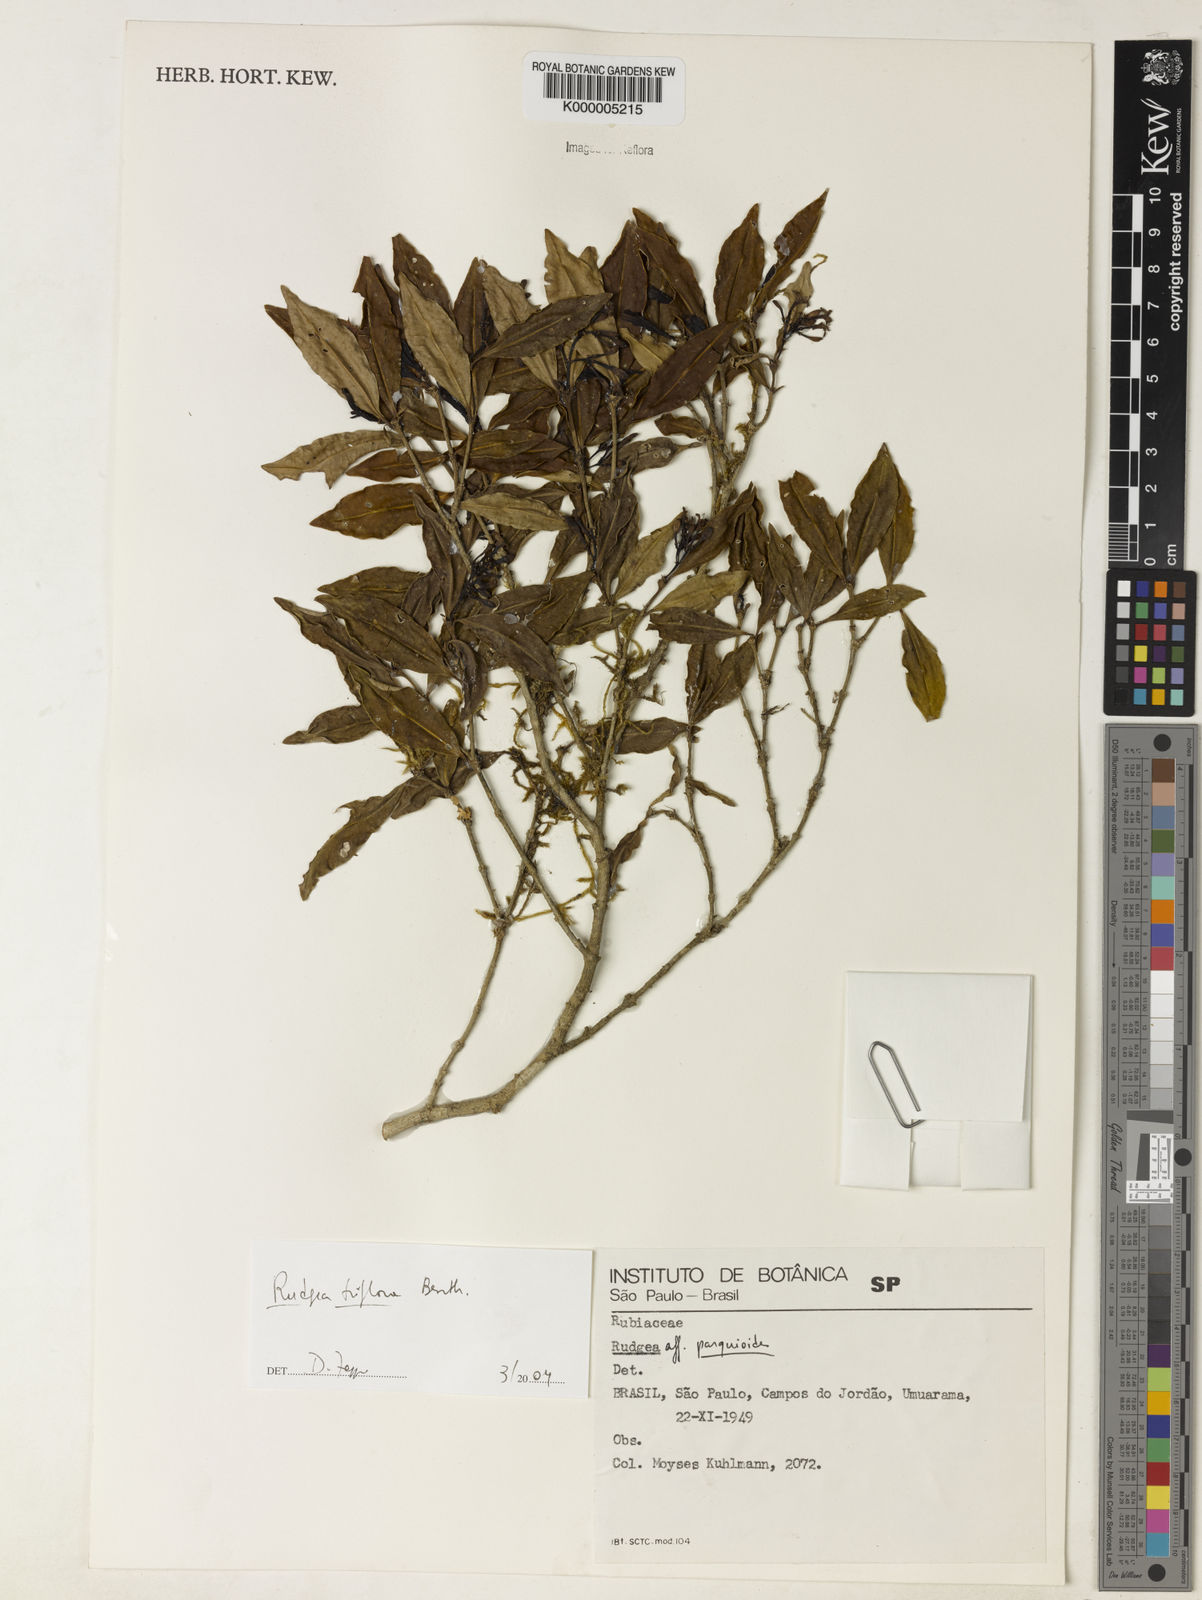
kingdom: Plantae
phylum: Tracheophyta
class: Magnoliopsida
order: Gentianales
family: Rubiaceae
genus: Rudgea
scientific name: Rudgea triflora
